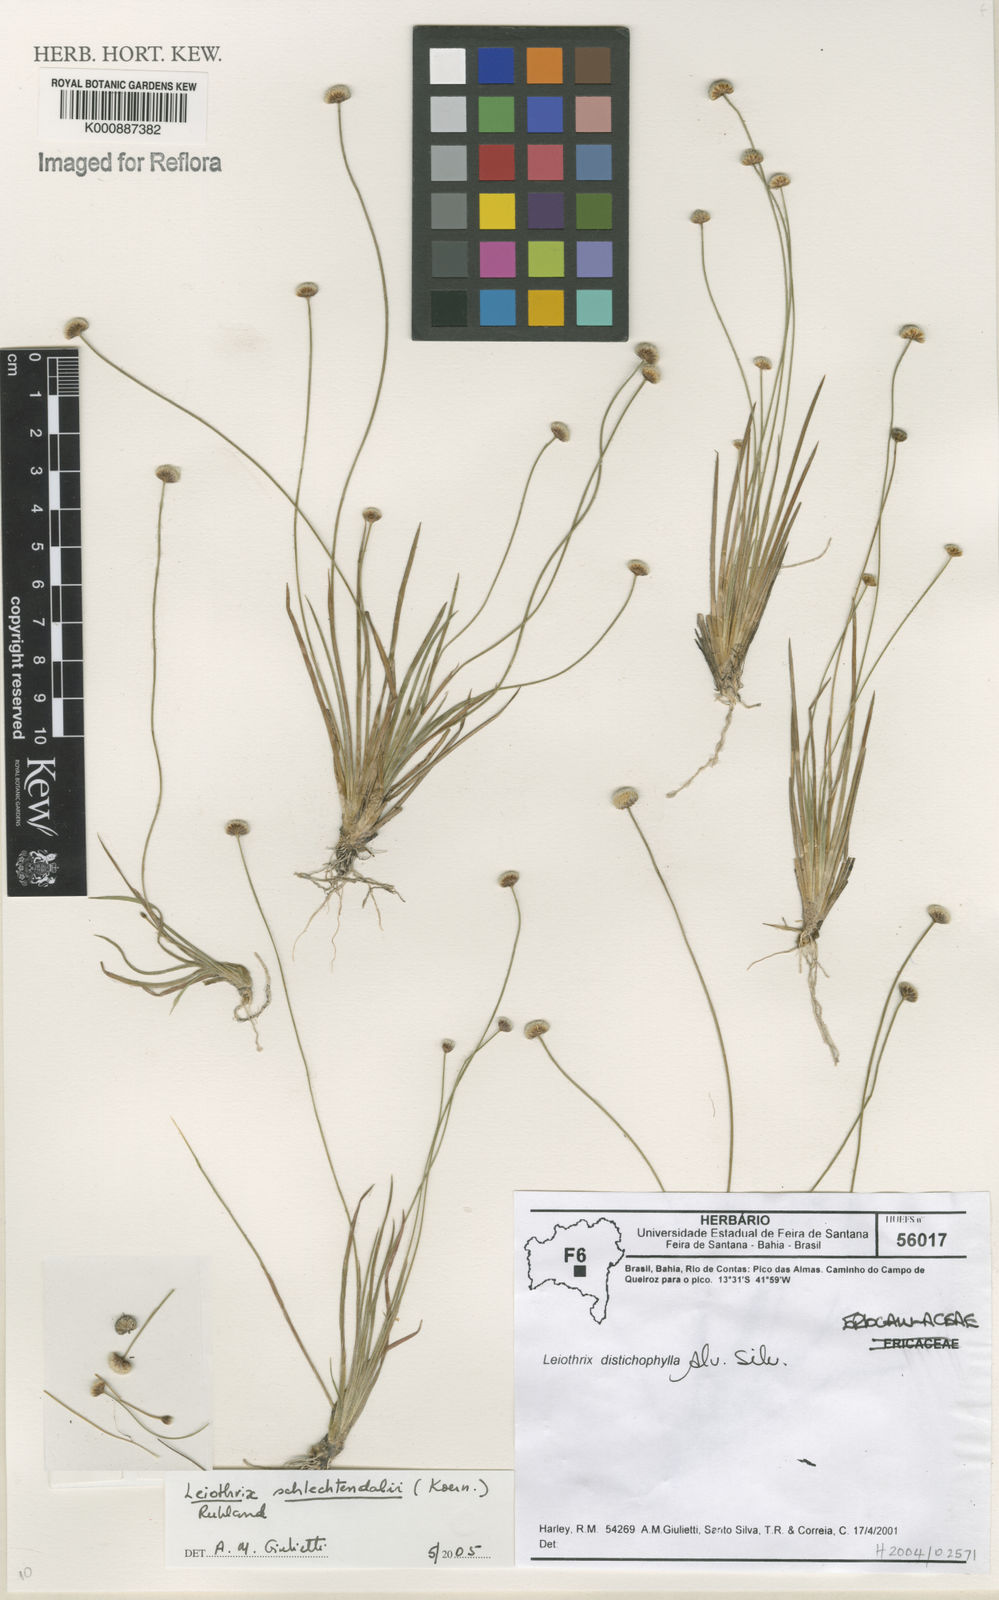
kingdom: Plantae
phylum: Tracheophyta
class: Liliopsida
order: Poales
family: Eriocaulaceae
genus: Leiothrix
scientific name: Leiothrix flavescens
